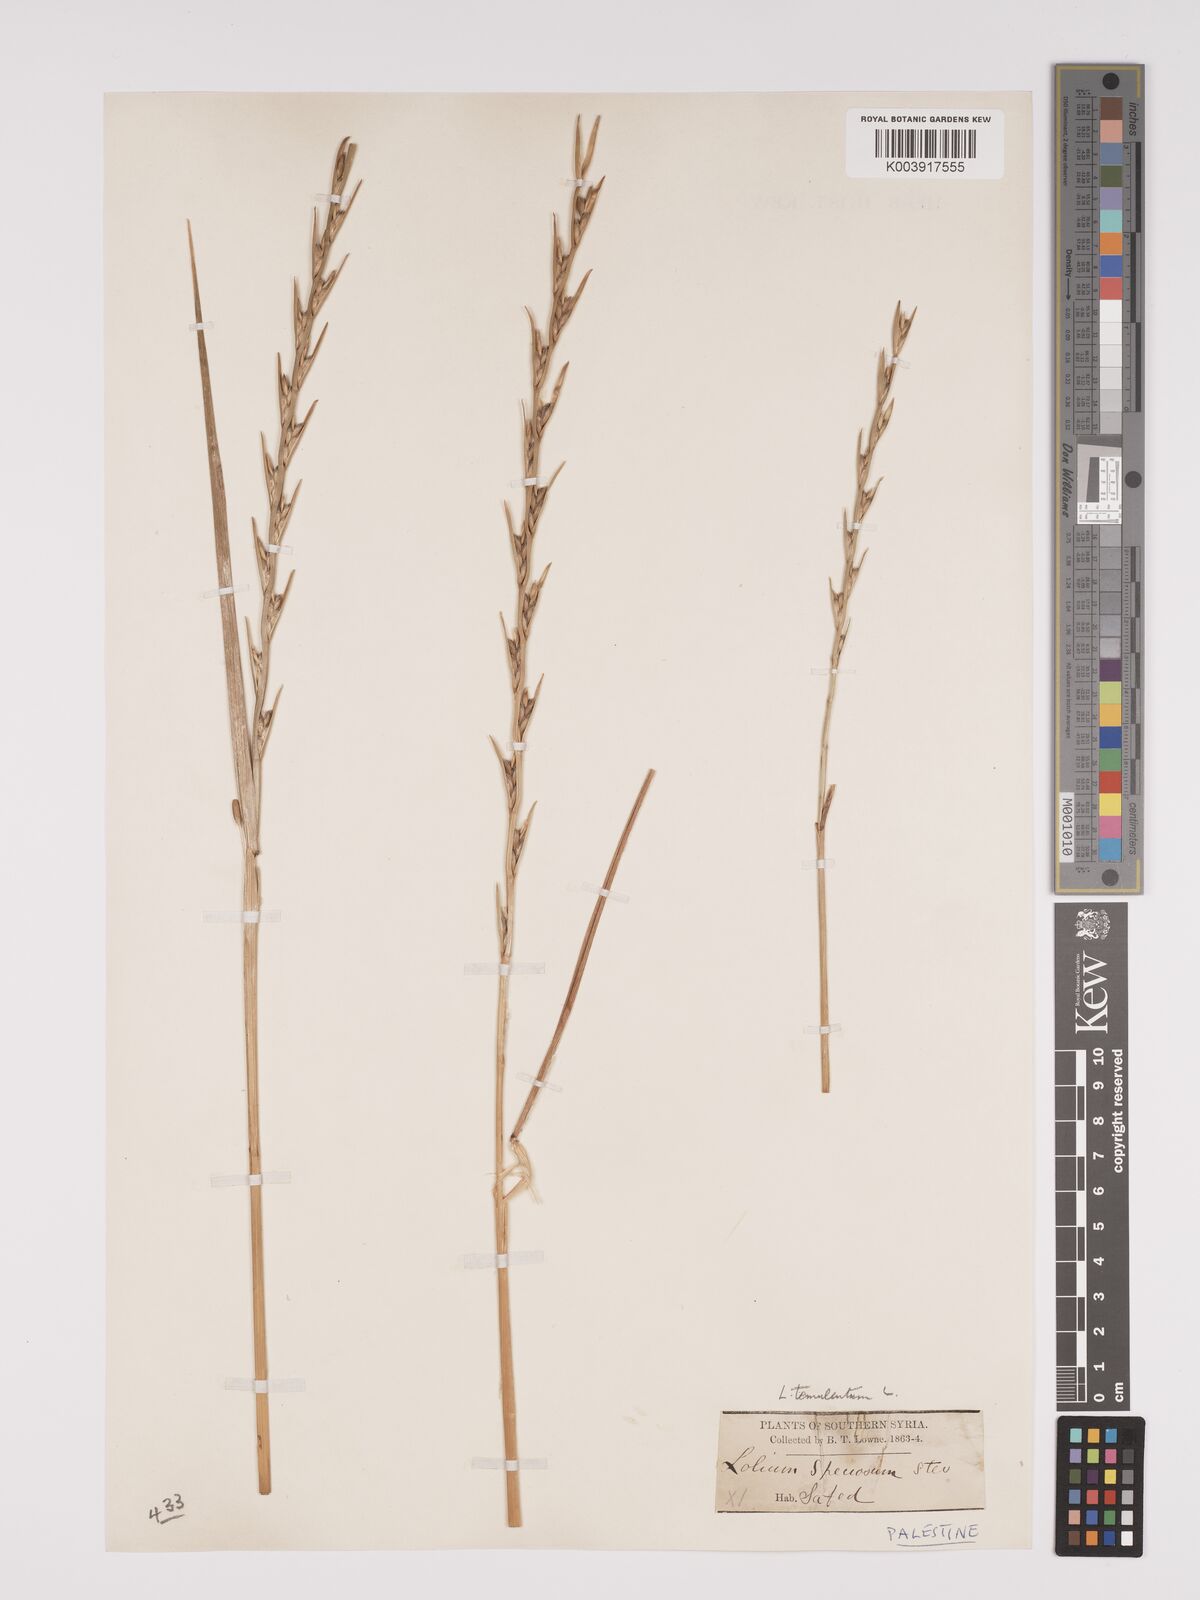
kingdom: Plantae
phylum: Tracheophyta
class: Liliopsida
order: Poales
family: Poaceae
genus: Lolium
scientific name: Lolium temulentum
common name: Darnel
